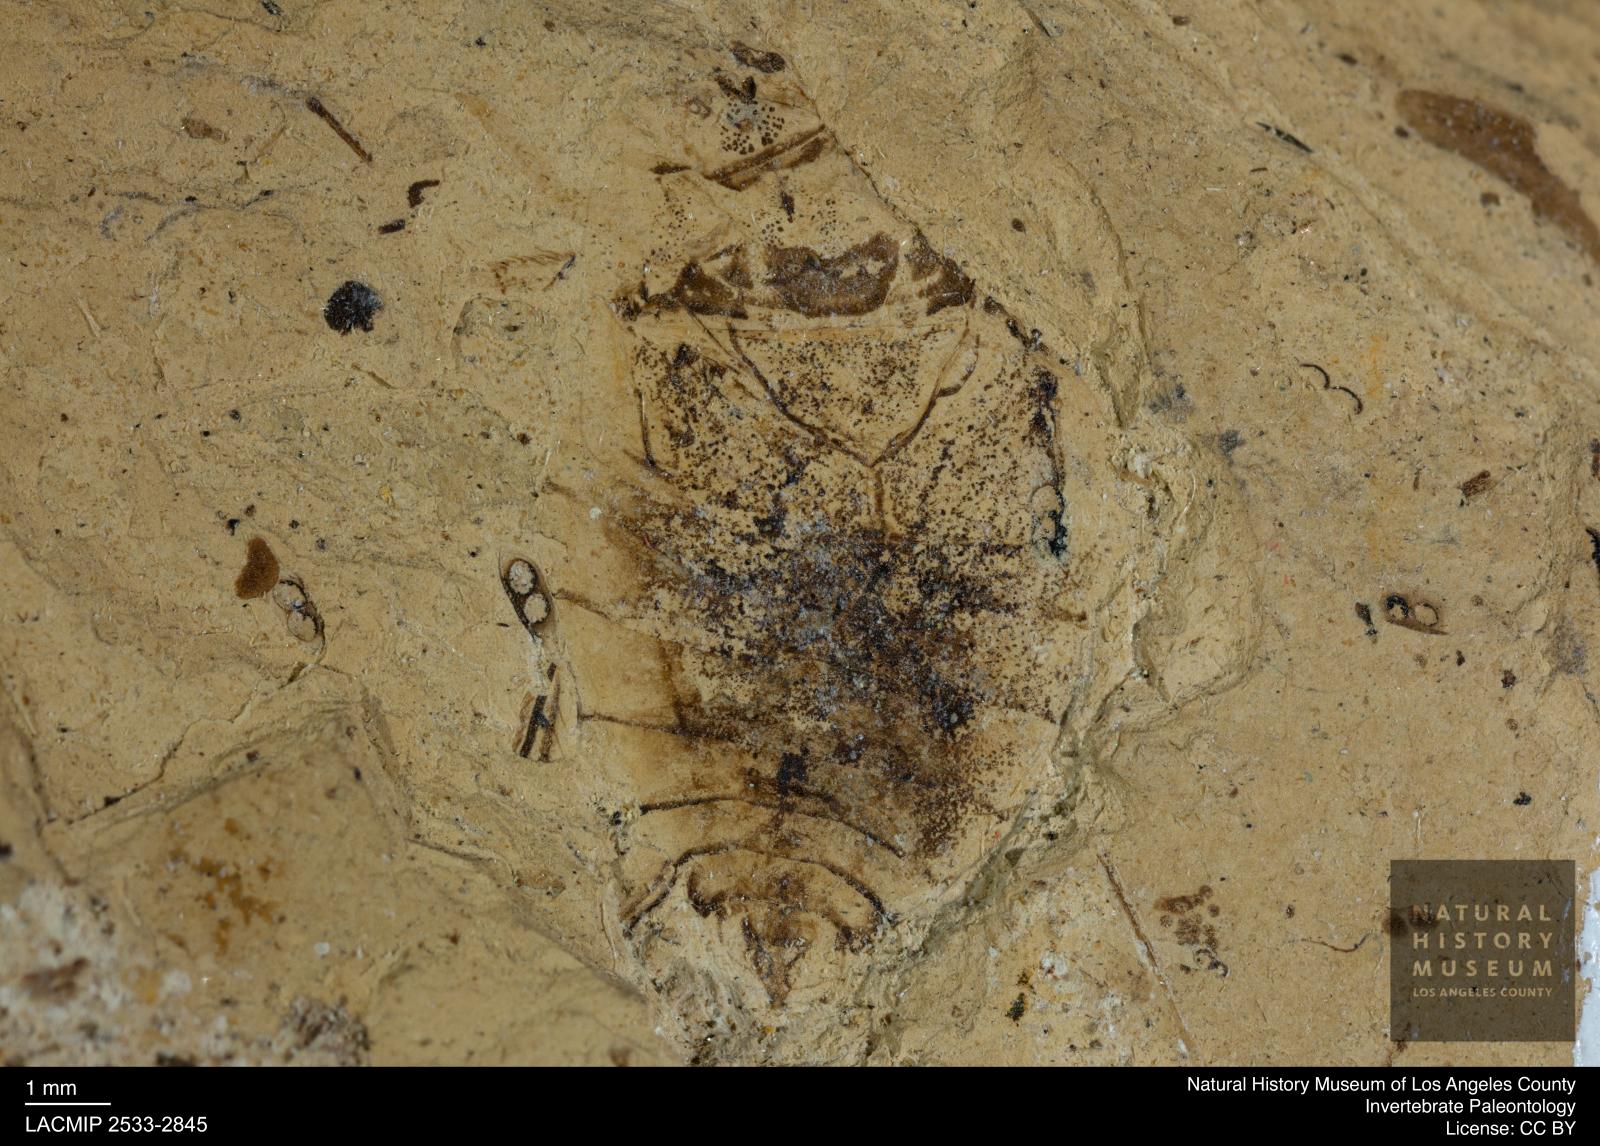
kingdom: Animalia
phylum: Arthropoda
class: Insecta
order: Hemiptera
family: Naucoridae
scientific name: Naucoridae
